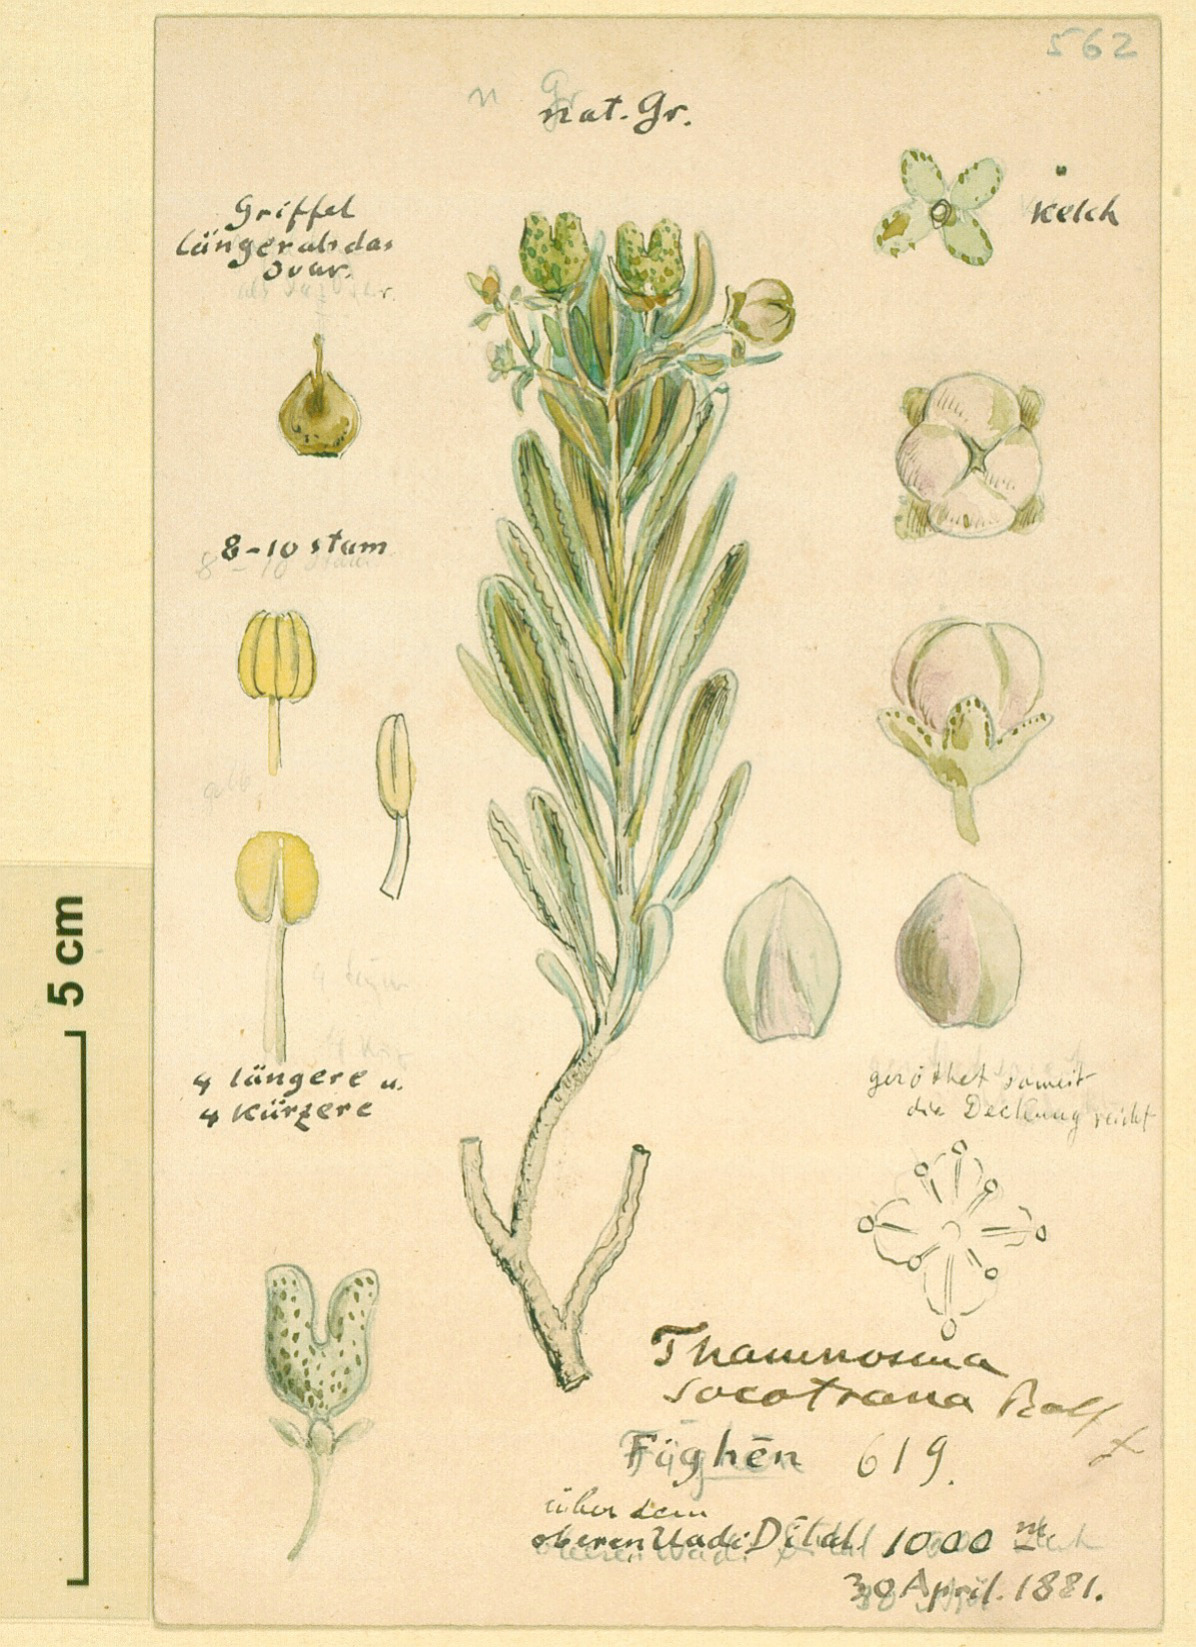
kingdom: Plantae
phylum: Tracheophyta
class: Magnoliopsida
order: Sapindales
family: Rutaceae
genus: Thamnosma
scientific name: Thamnosma socotrana
